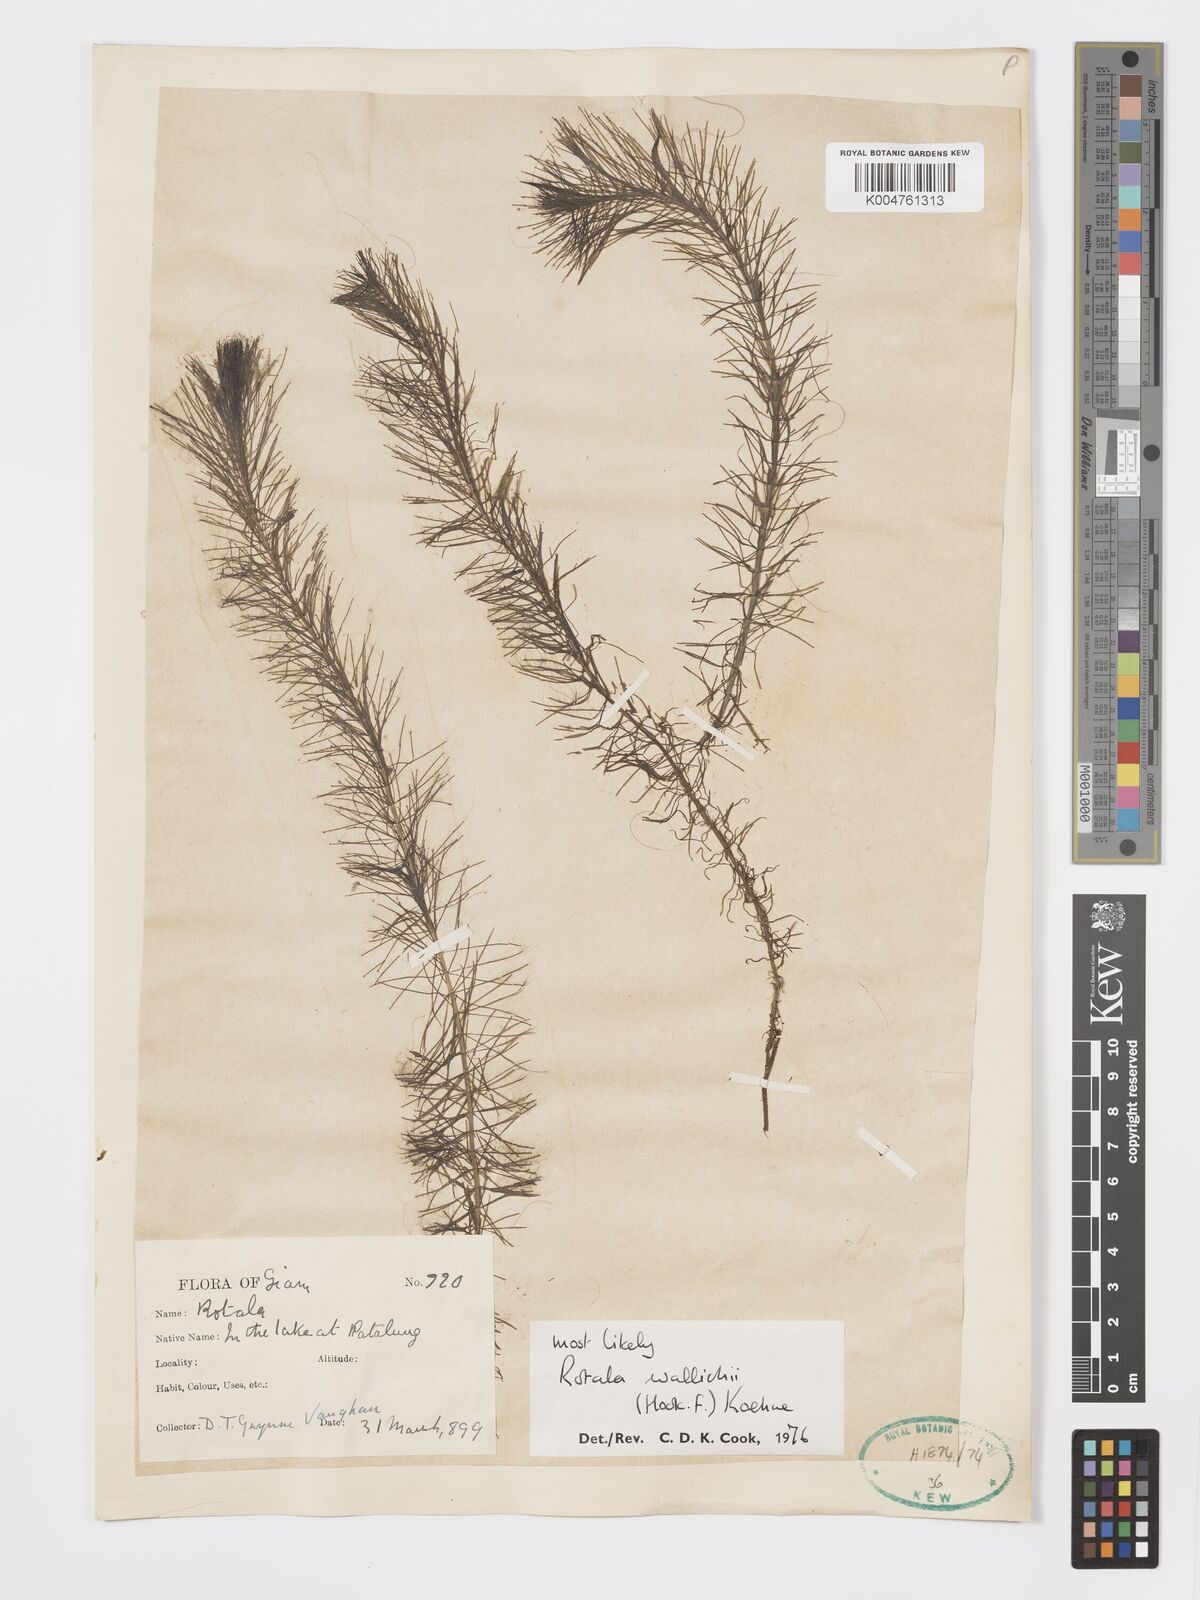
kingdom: Plantae
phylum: Tracheophyta
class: Magnoliopsida
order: Myrtales
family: Lythraceae
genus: Rotala
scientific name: Rotala wallichii
